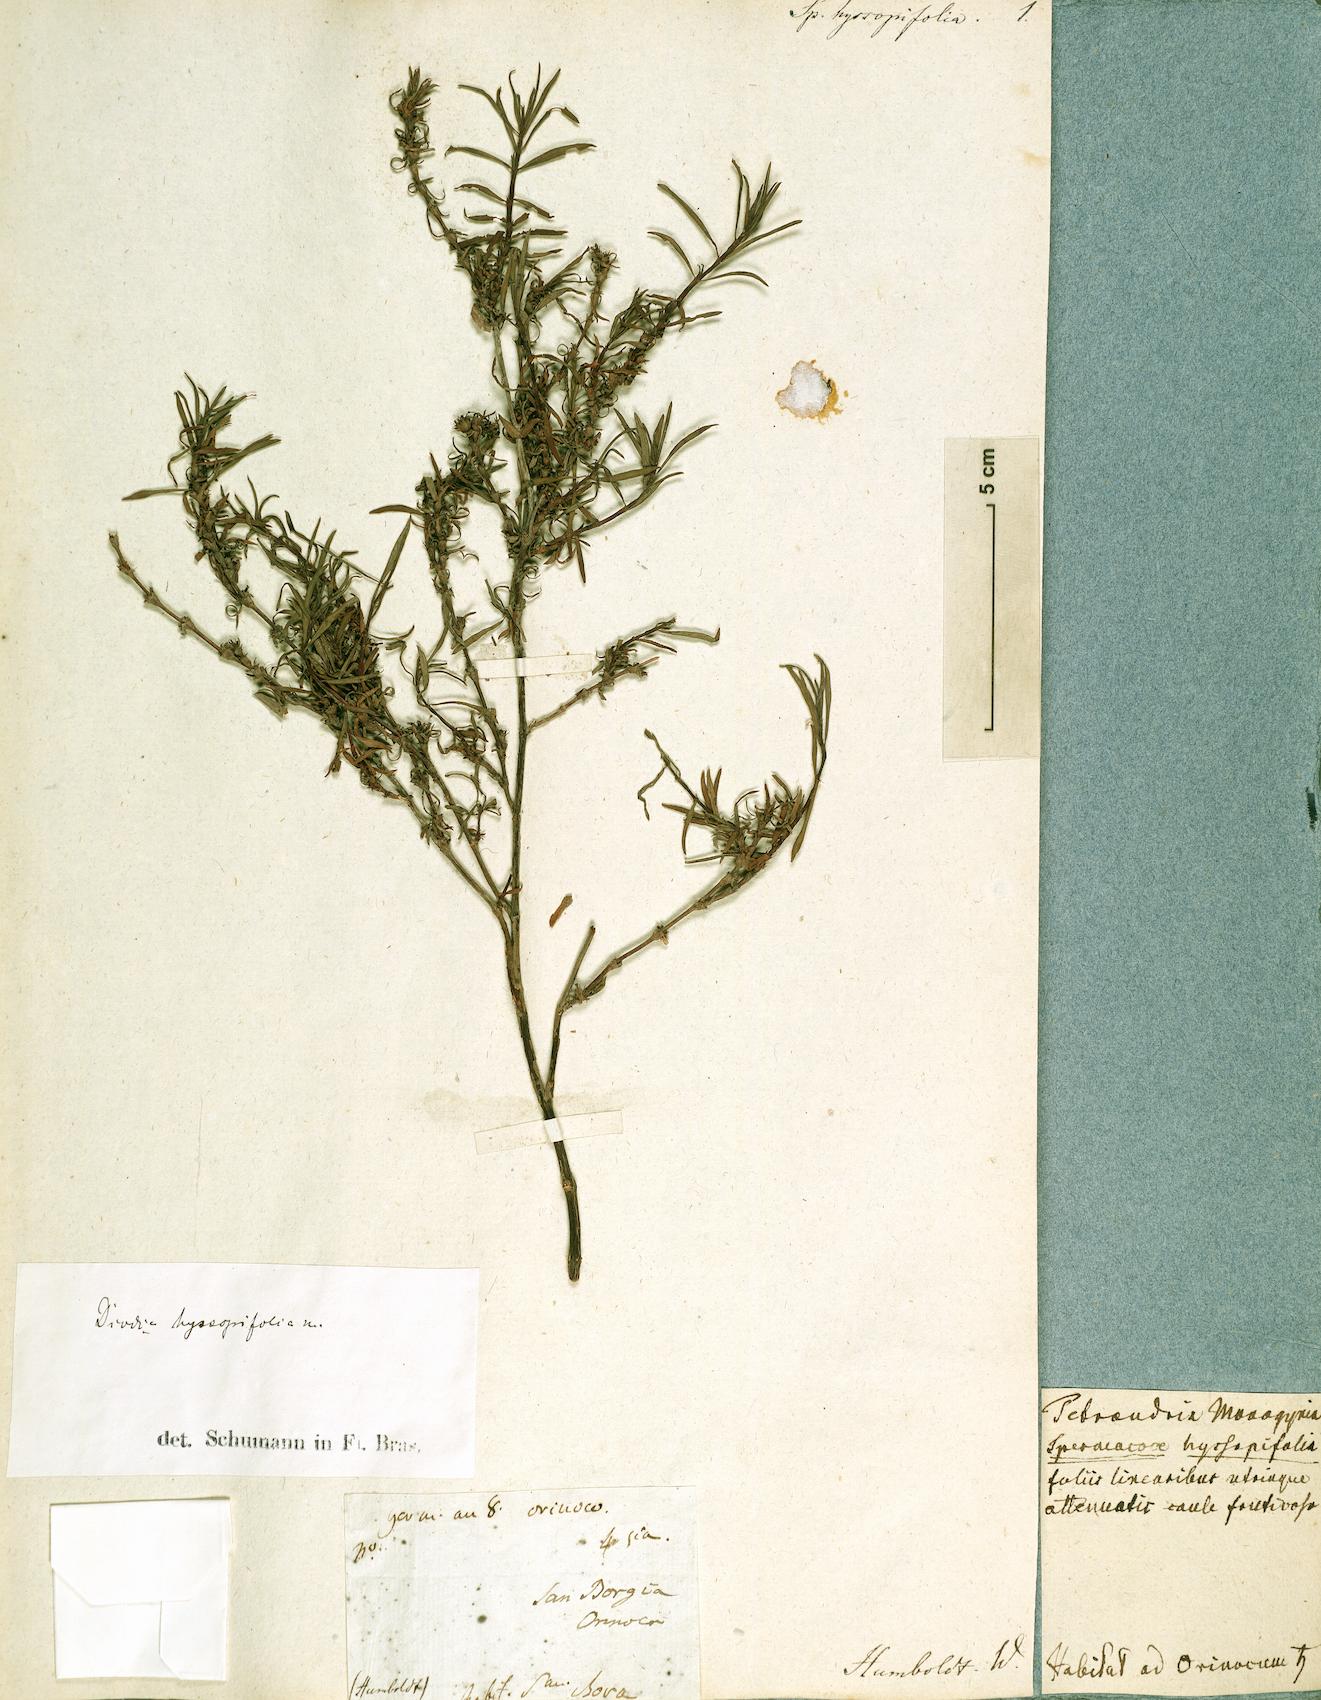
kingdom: Plantae
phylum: Tracheophyta
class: Magnoliopsida
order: Gentianales
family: Rubiaceae
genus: Spermacoce
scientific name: Spermacoce hyssopifolia
